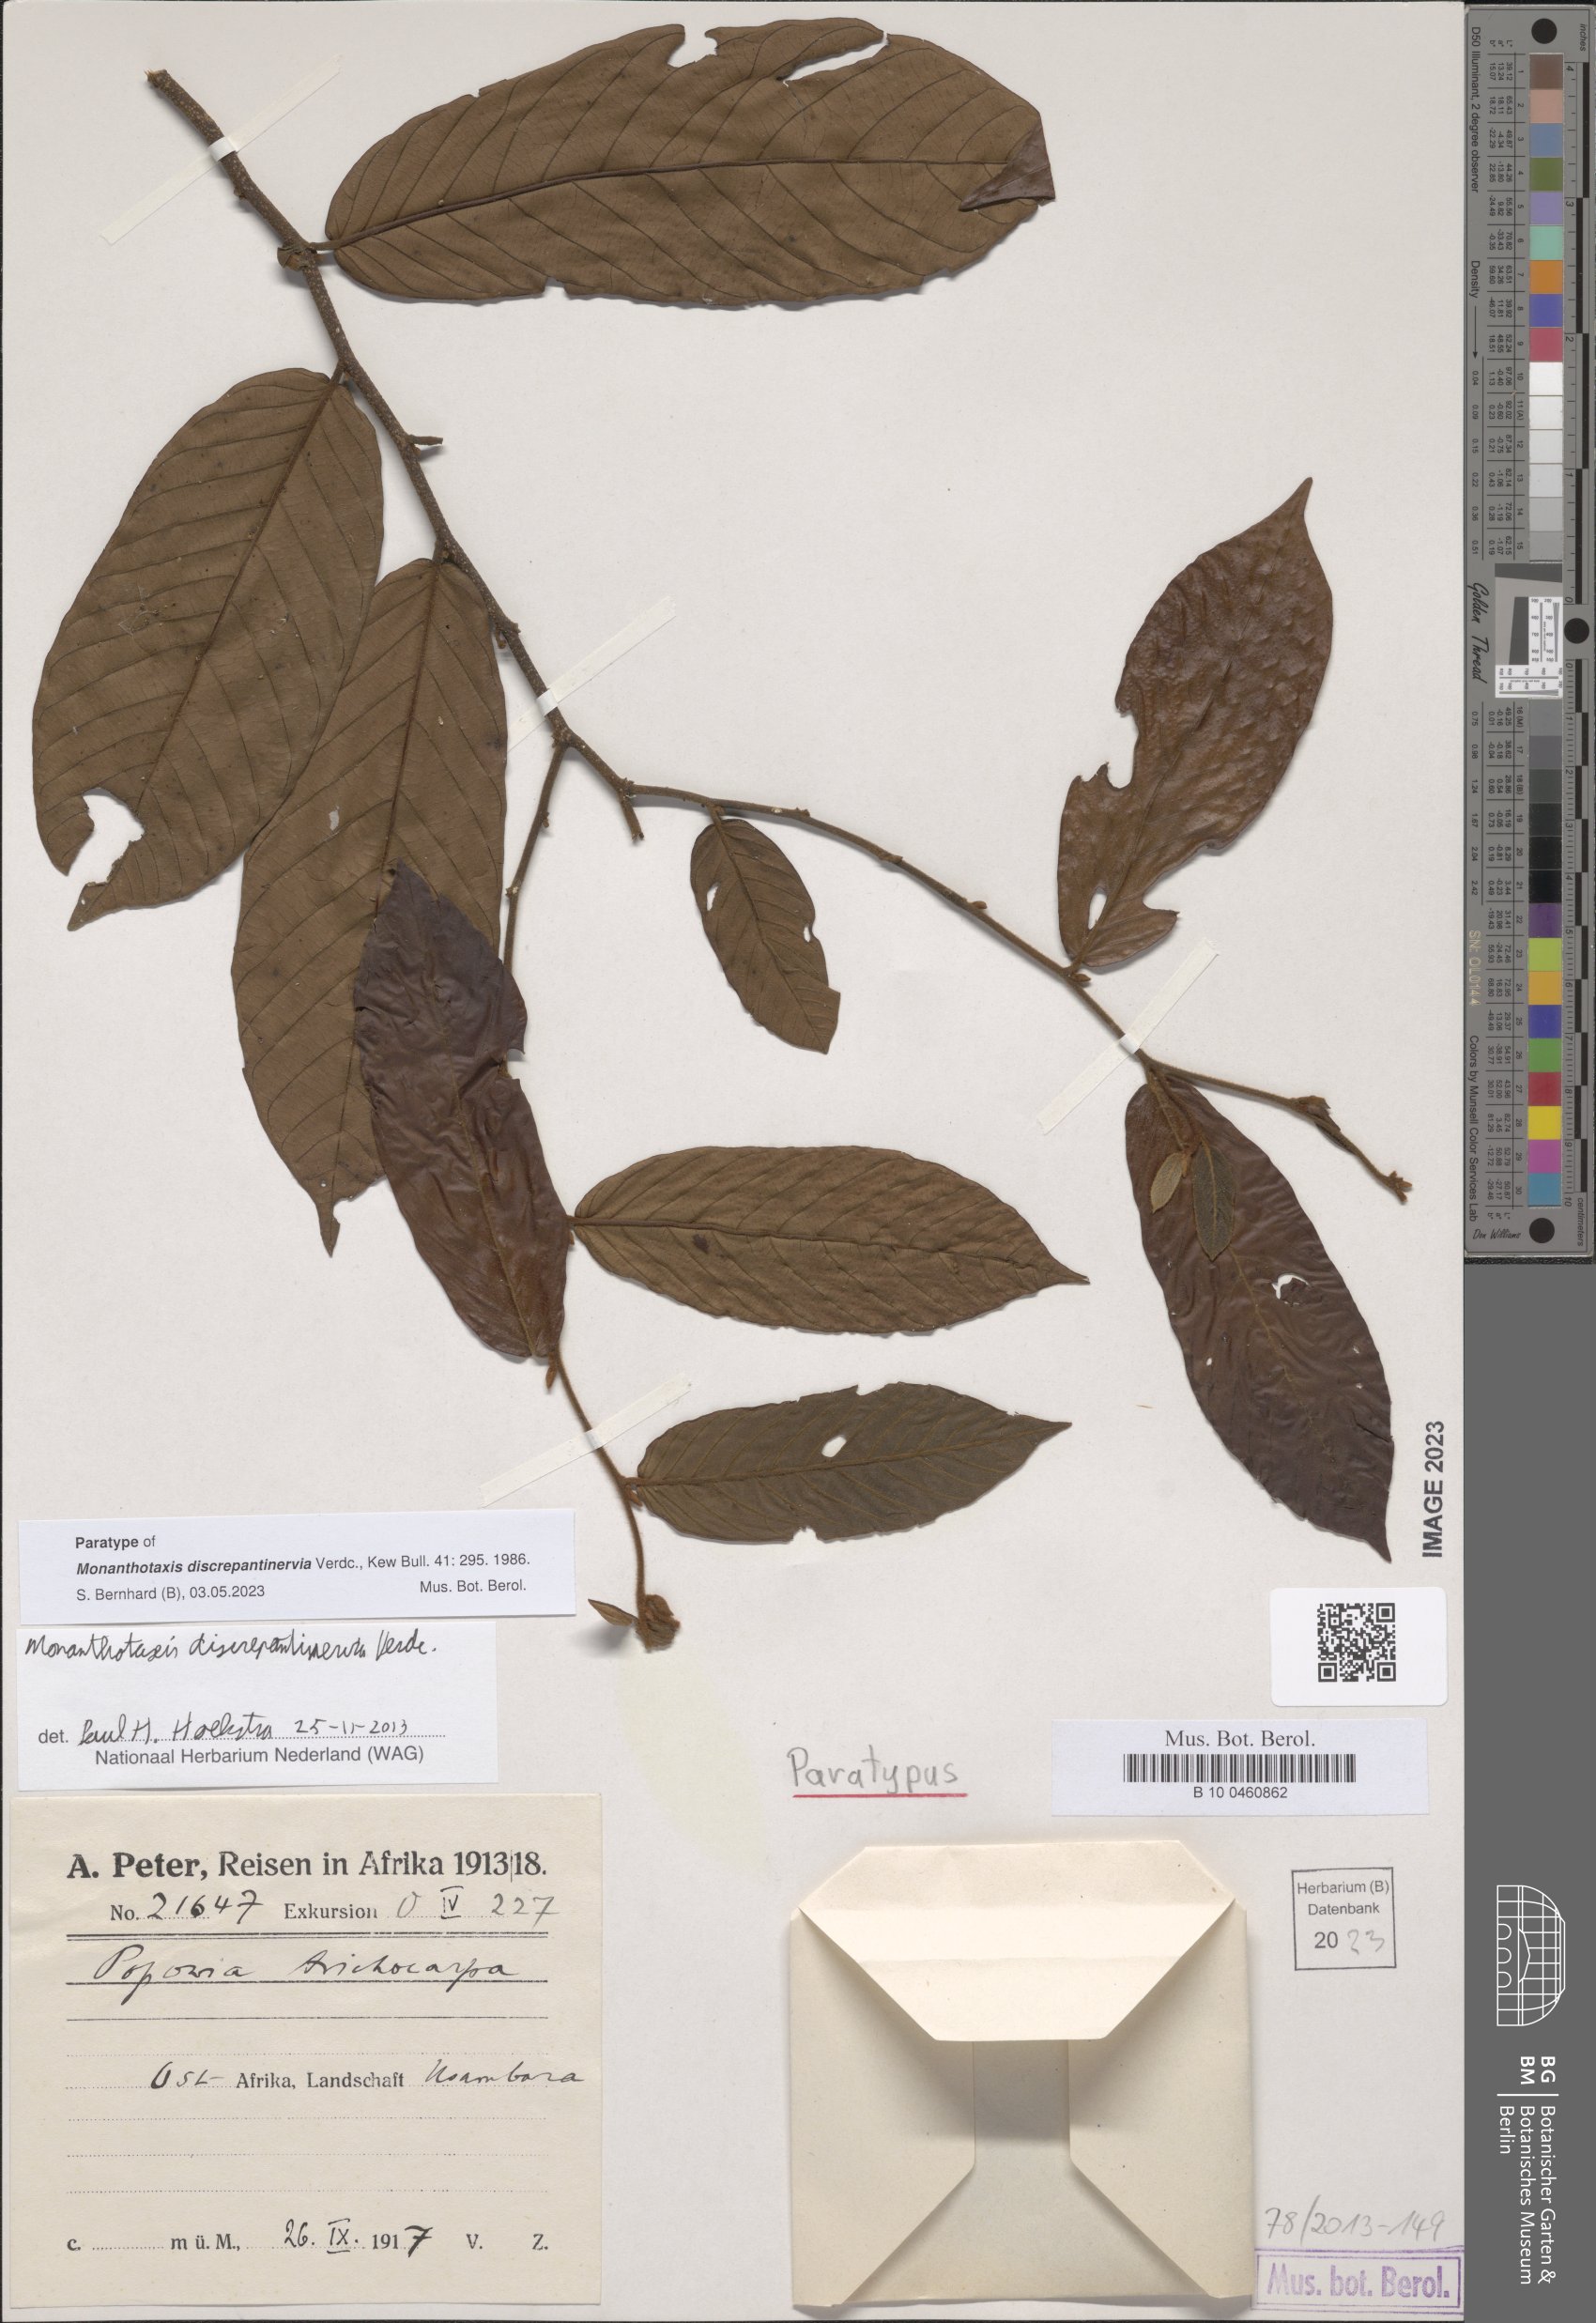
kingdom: Plantae
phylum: Tracheophyta
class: Magnoliopsida
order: Magnoliales
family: Annonaceae
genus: Monanthotaxis
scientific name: Monanthotaxis discrepantinervia
